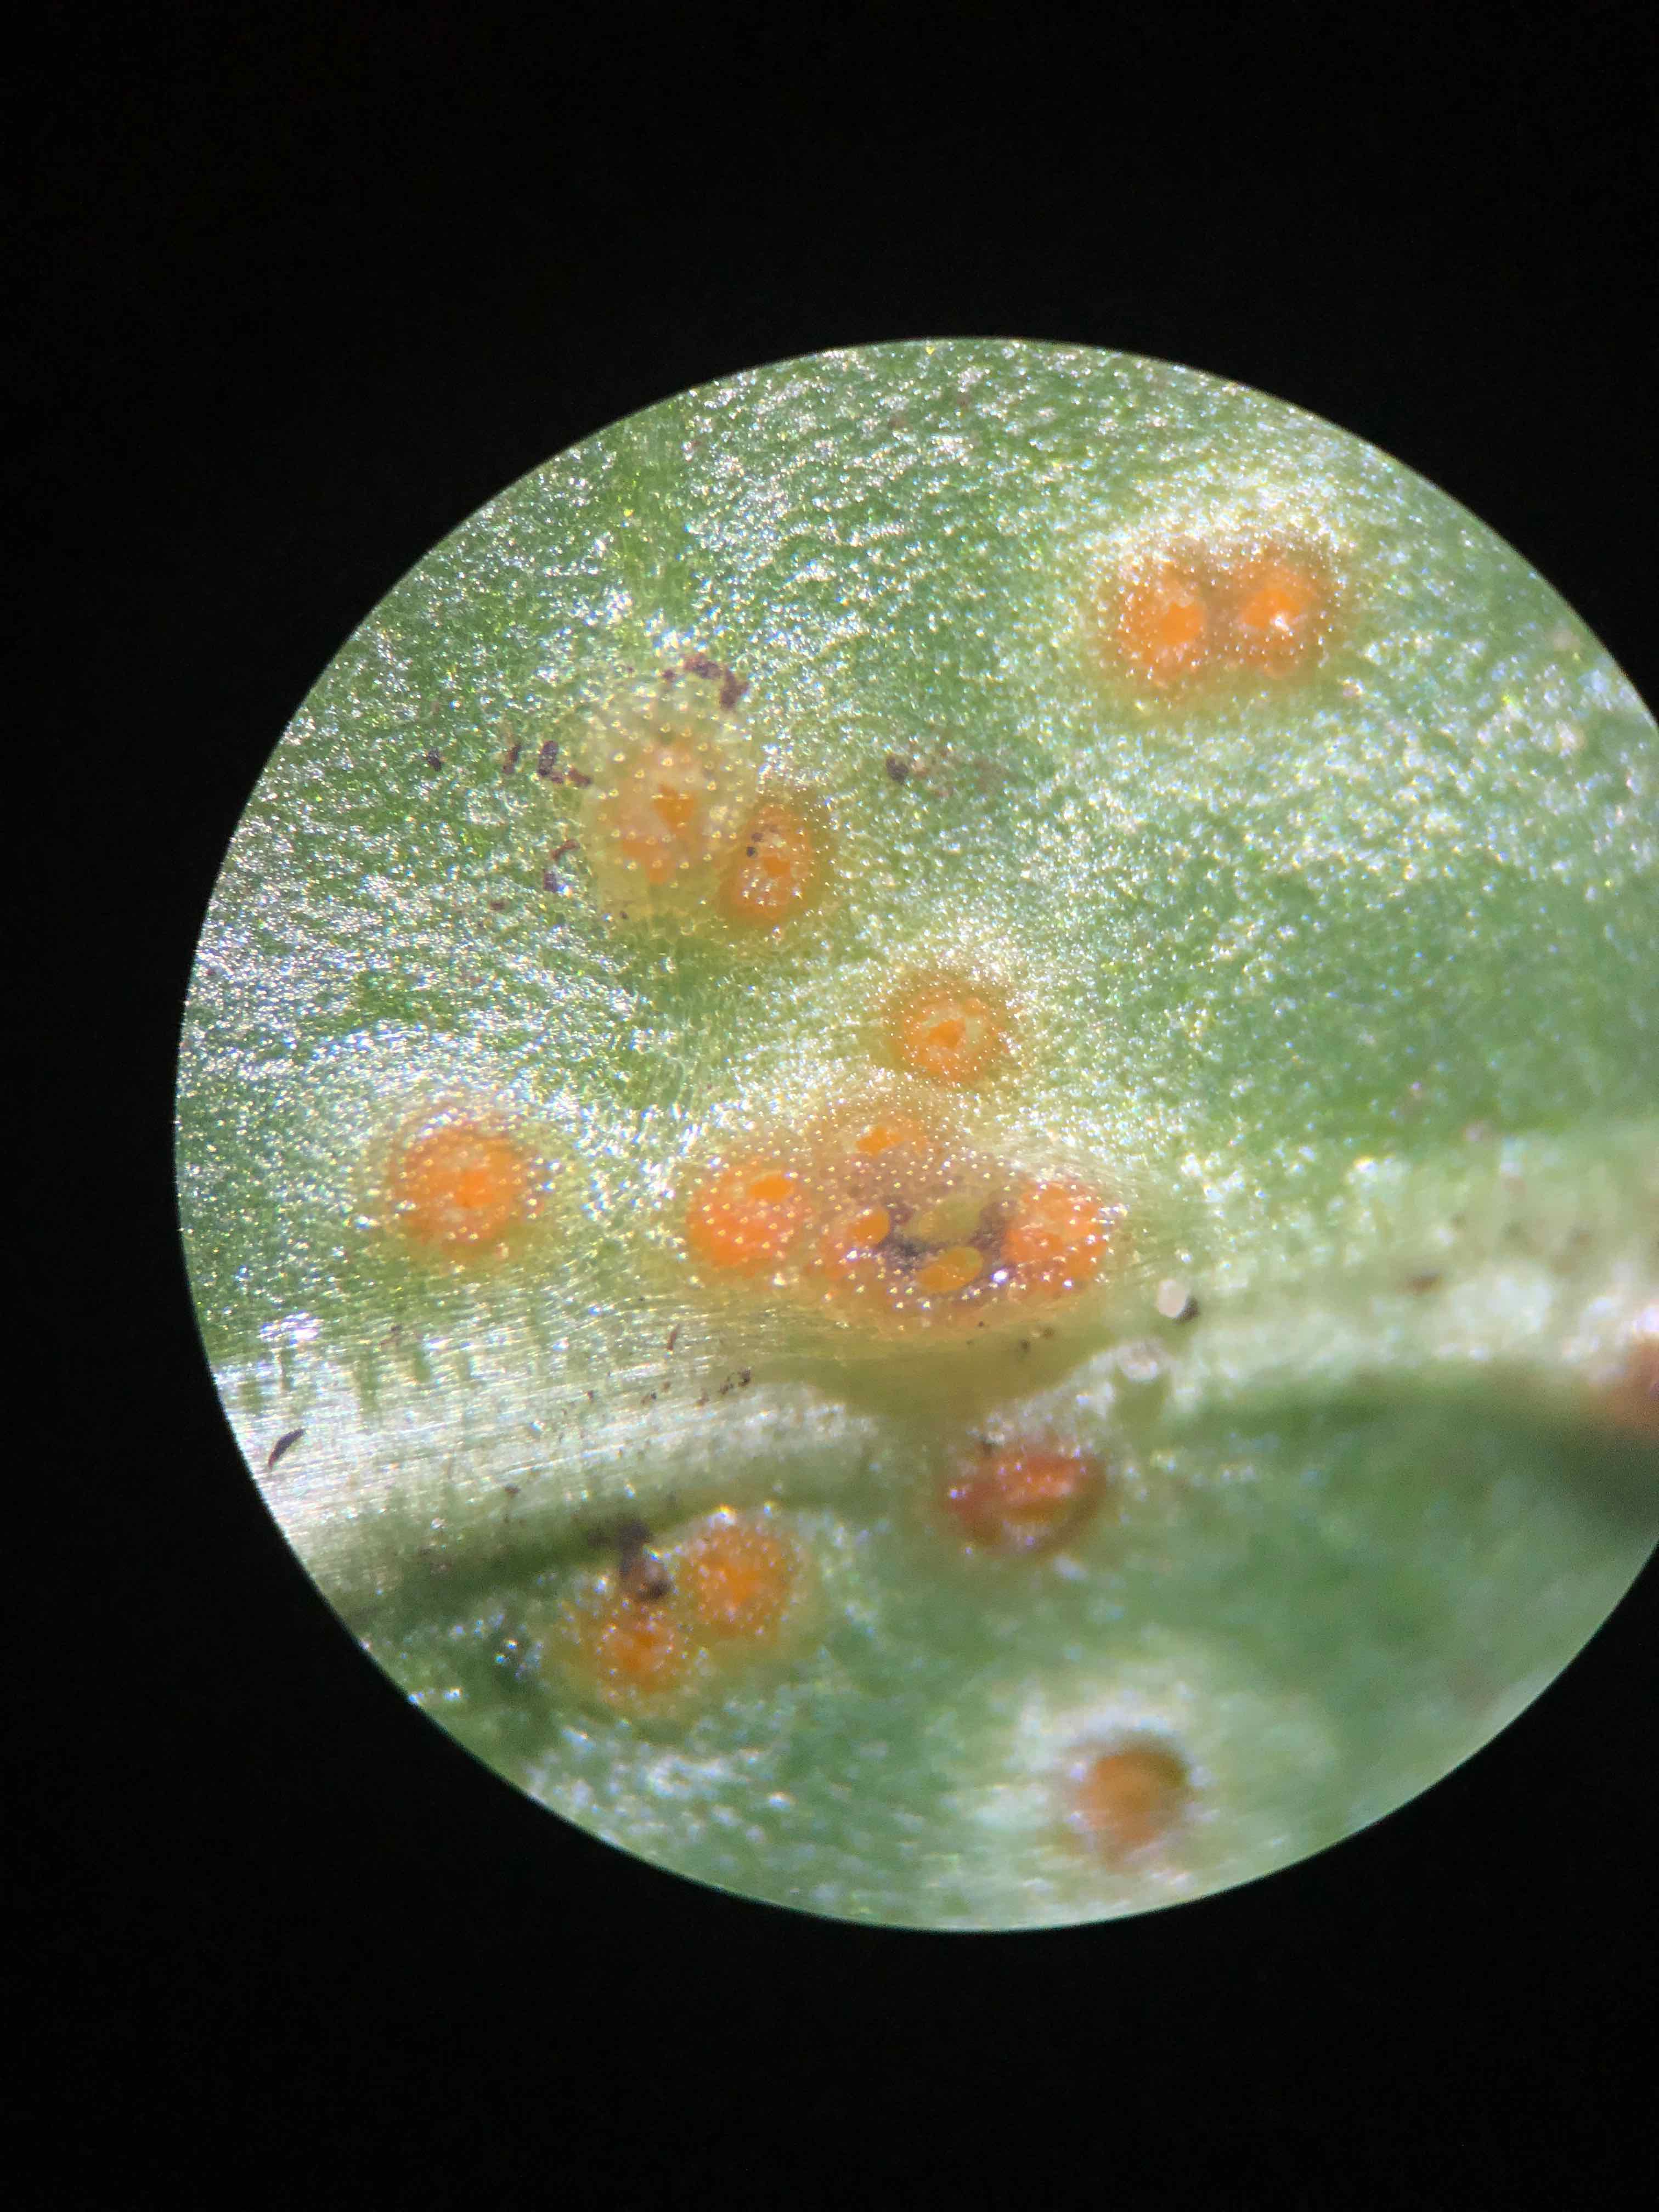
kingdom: Fungi
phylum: Chytridiomycota
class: Chytridiomycetes
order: Chytridiales
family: Synchytriaceae
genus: Synchytrium
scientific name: Synchytrium taraxaci
